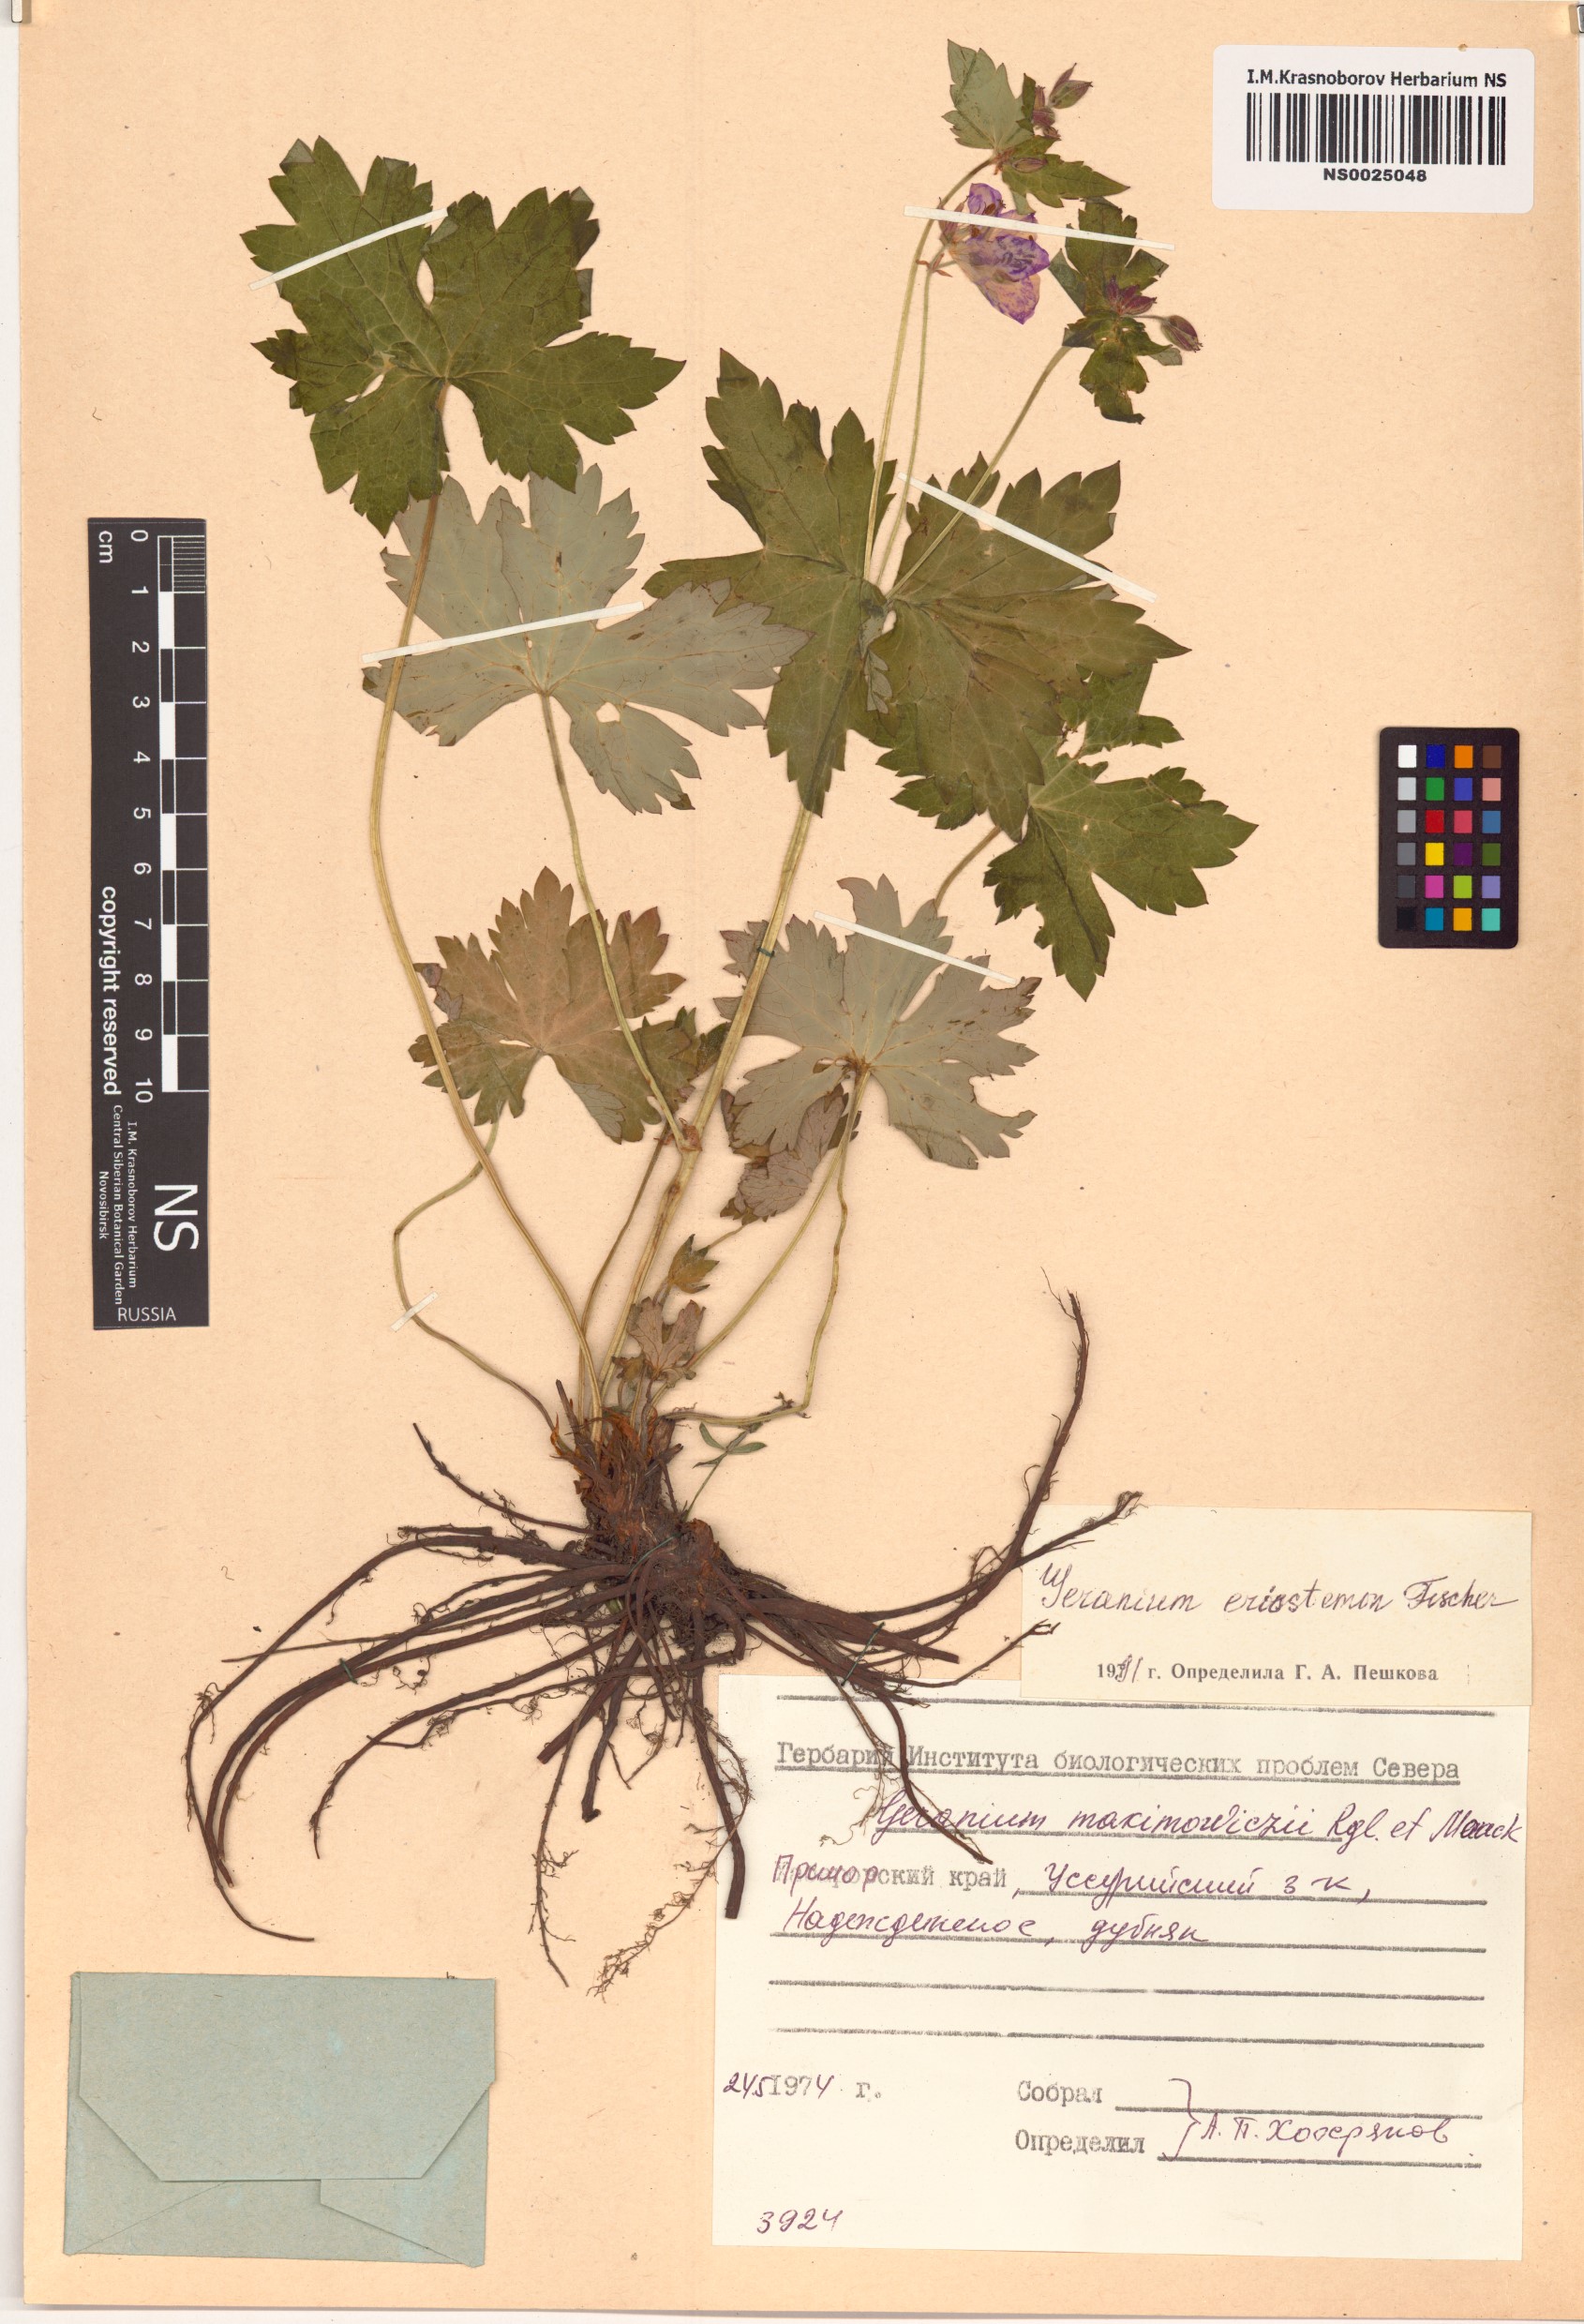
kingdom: Plantae
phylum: Tracheophyta
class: Magnoliopsida
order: Geraniales
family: Geraniaceae
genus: Geranium
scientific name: Geranium platyanthum
